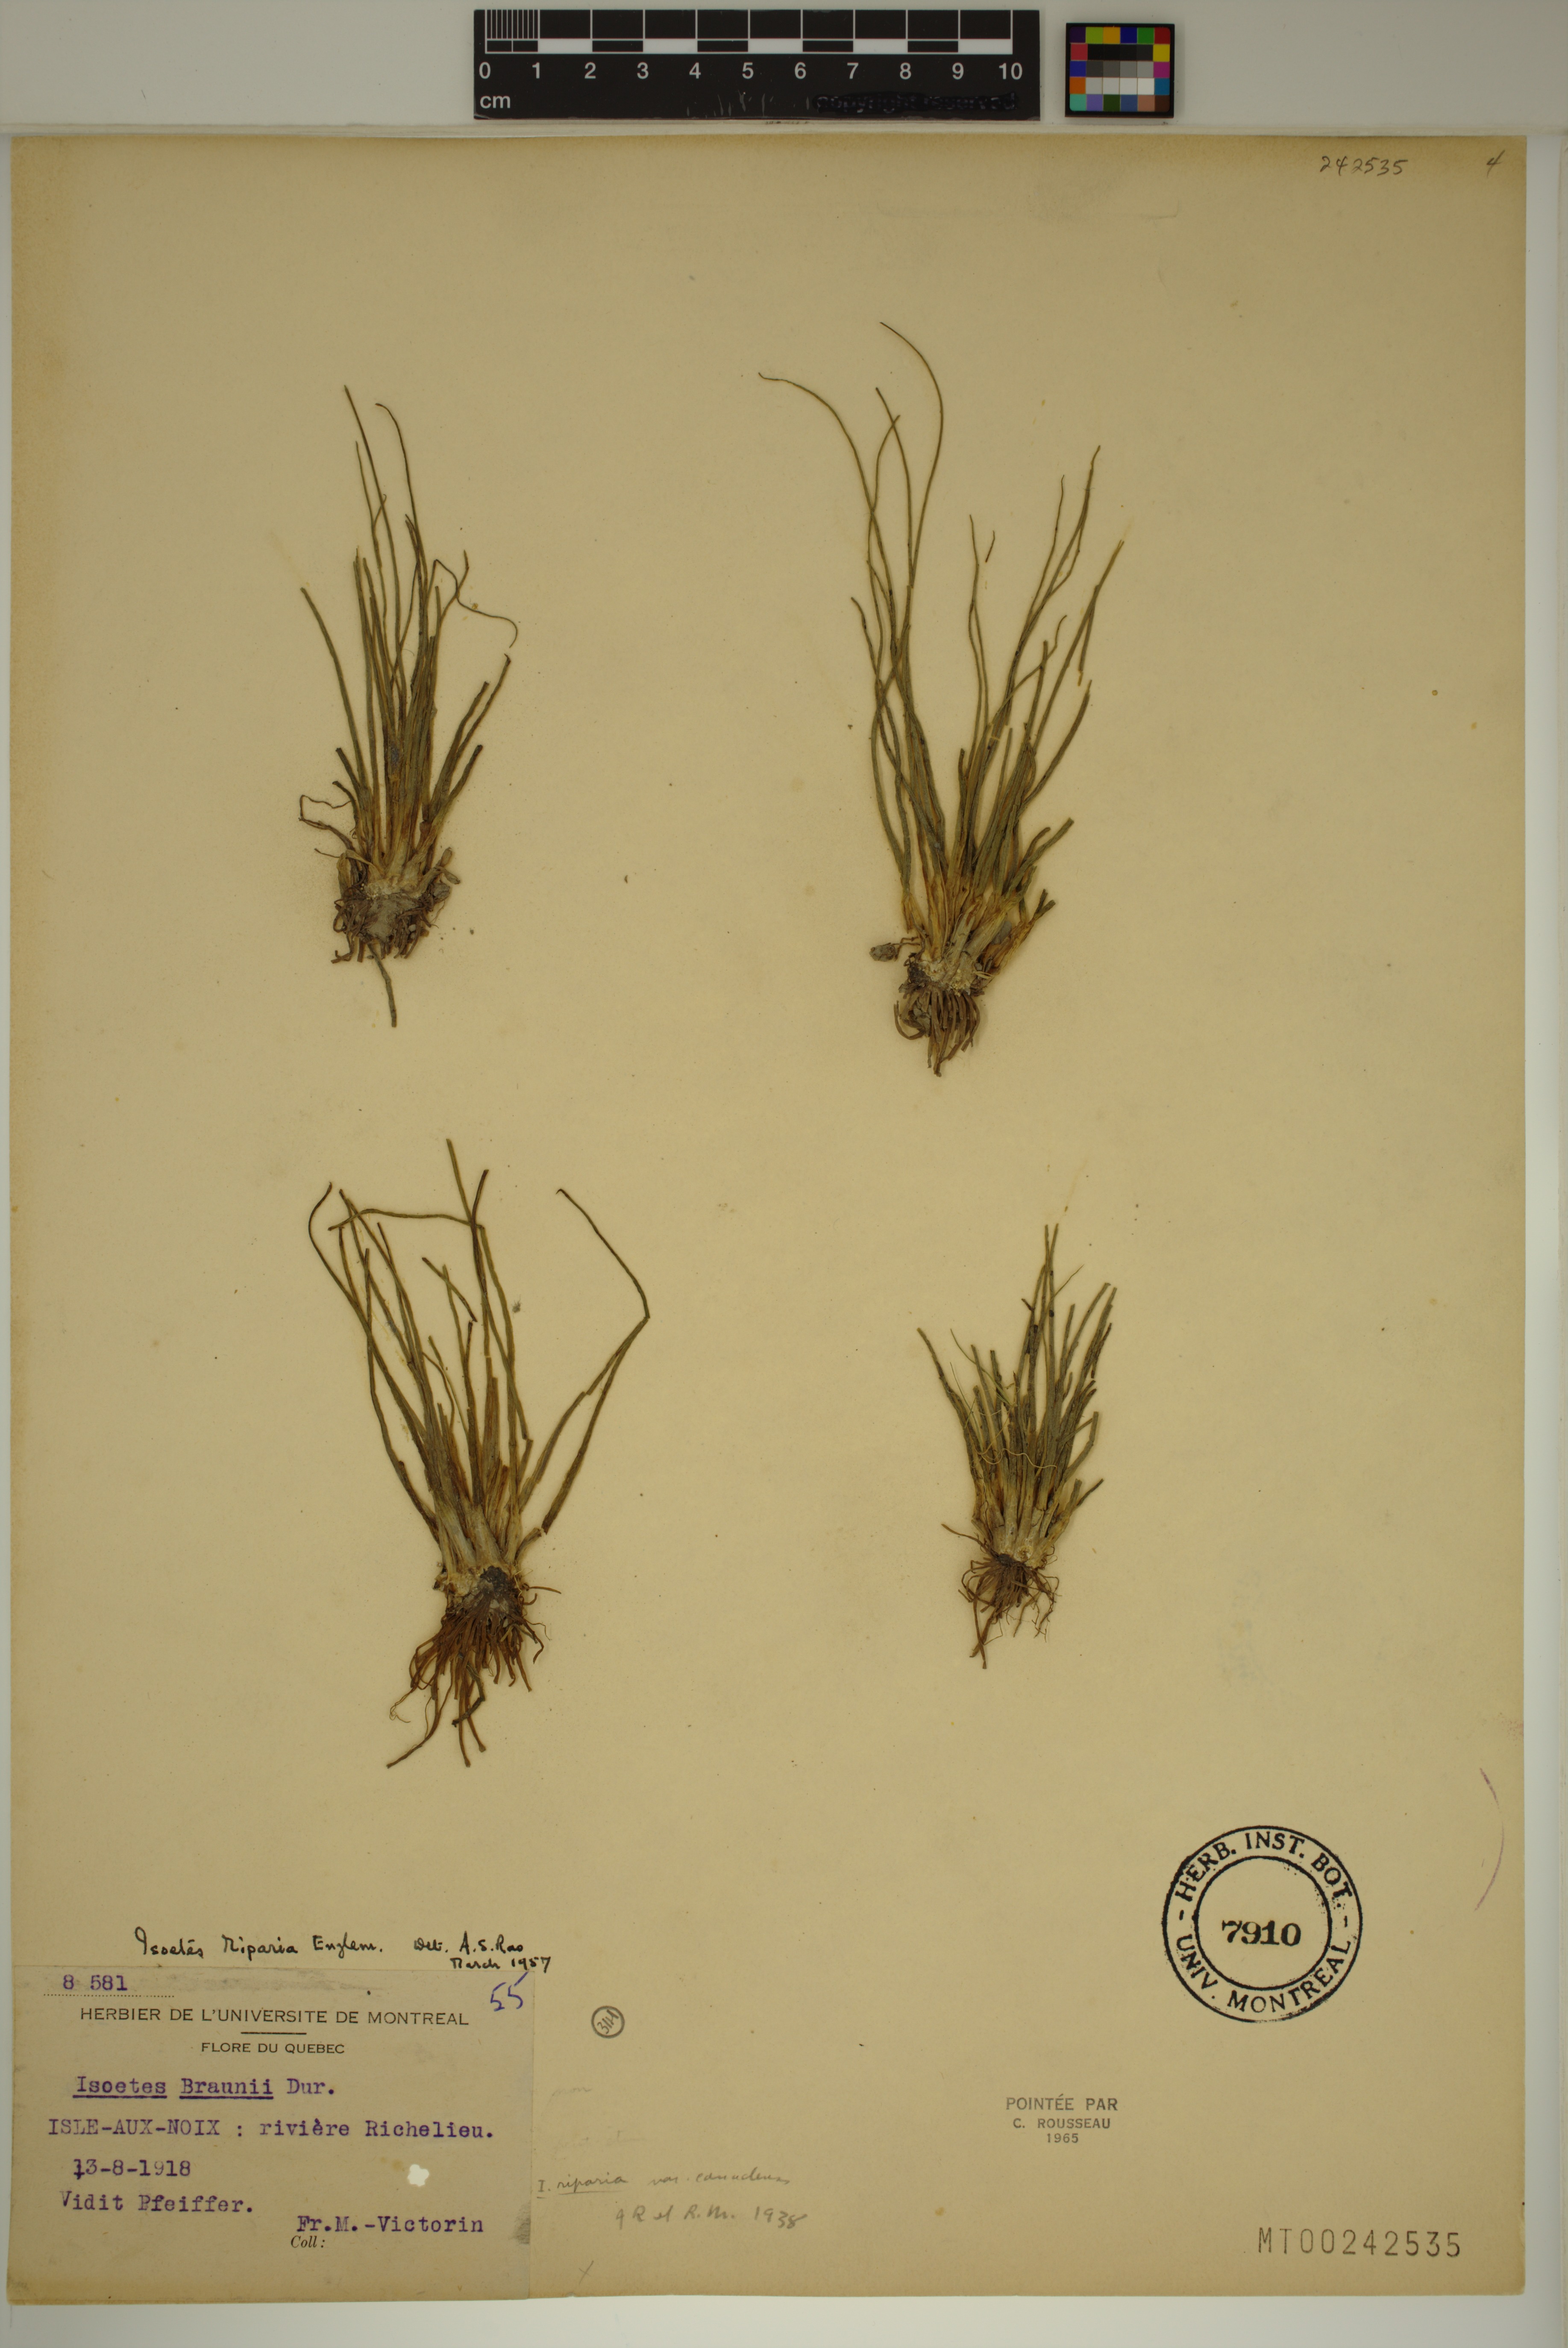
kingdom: Plantae
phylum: Tracheophyta
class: Lycopodiopsida
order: Isoetales
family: Isoetaceae
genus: Isoetes
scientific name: Isoetes septentrionalis
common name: Northern quillwort
